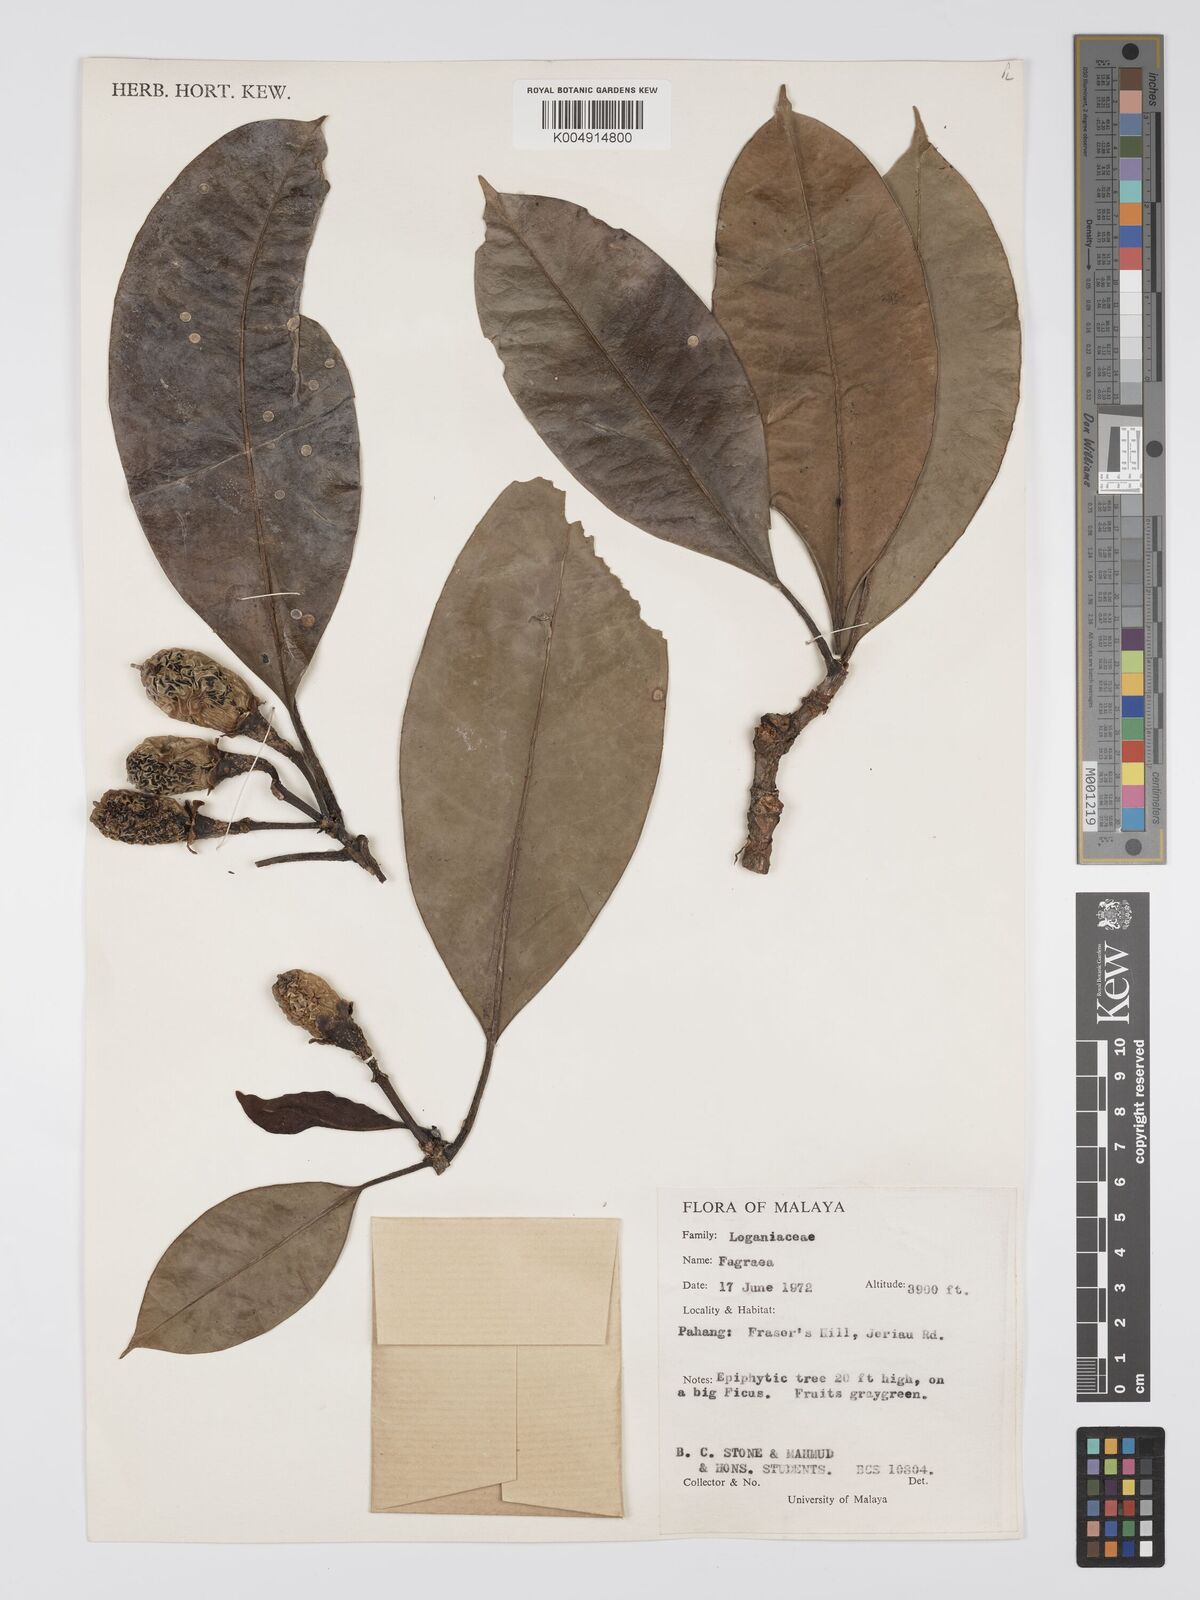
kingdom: Plantae
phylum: Tracheophyta
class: Magnoliopsida
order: Gentianales
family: Gentianaceae
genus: Fagraea
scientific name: Fagraea oblonga
